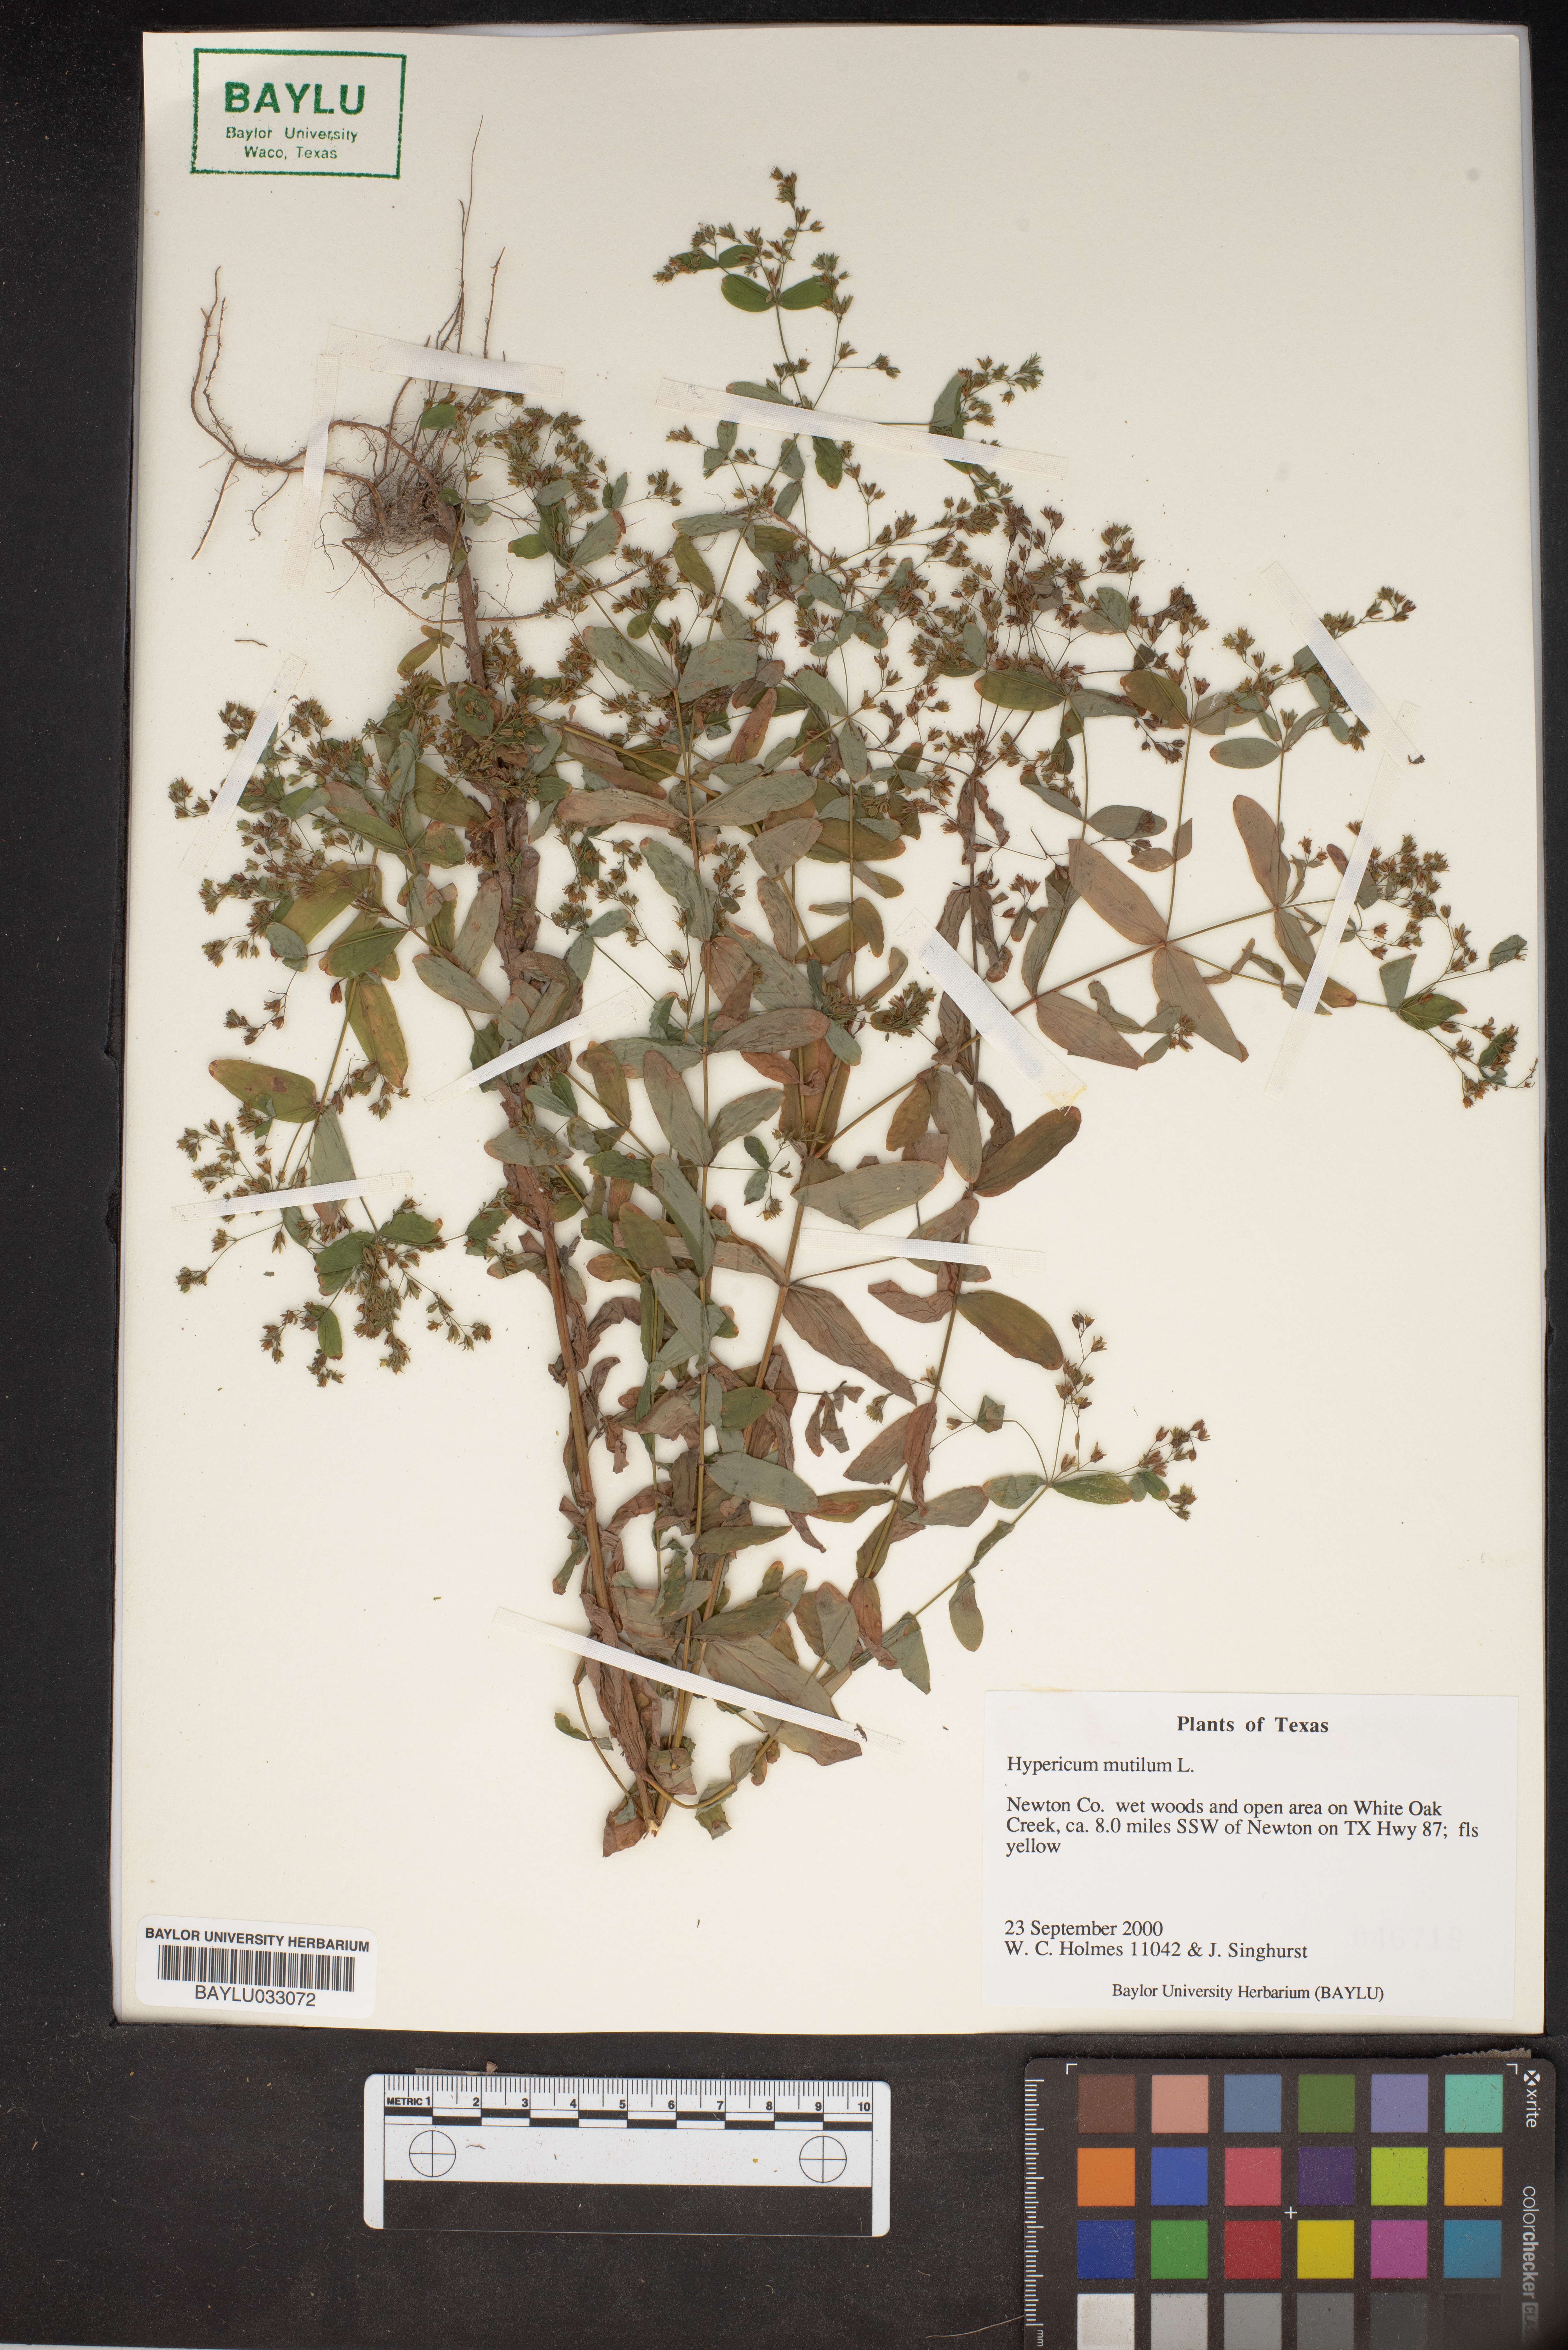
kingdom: Plantae
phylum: Tracheophyta
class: Magnoliopsida
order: Malpighiales
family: Hypericaceae
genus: Hypericum
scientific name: Hypericum mutilum
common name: Dwarf st. john's-wort
